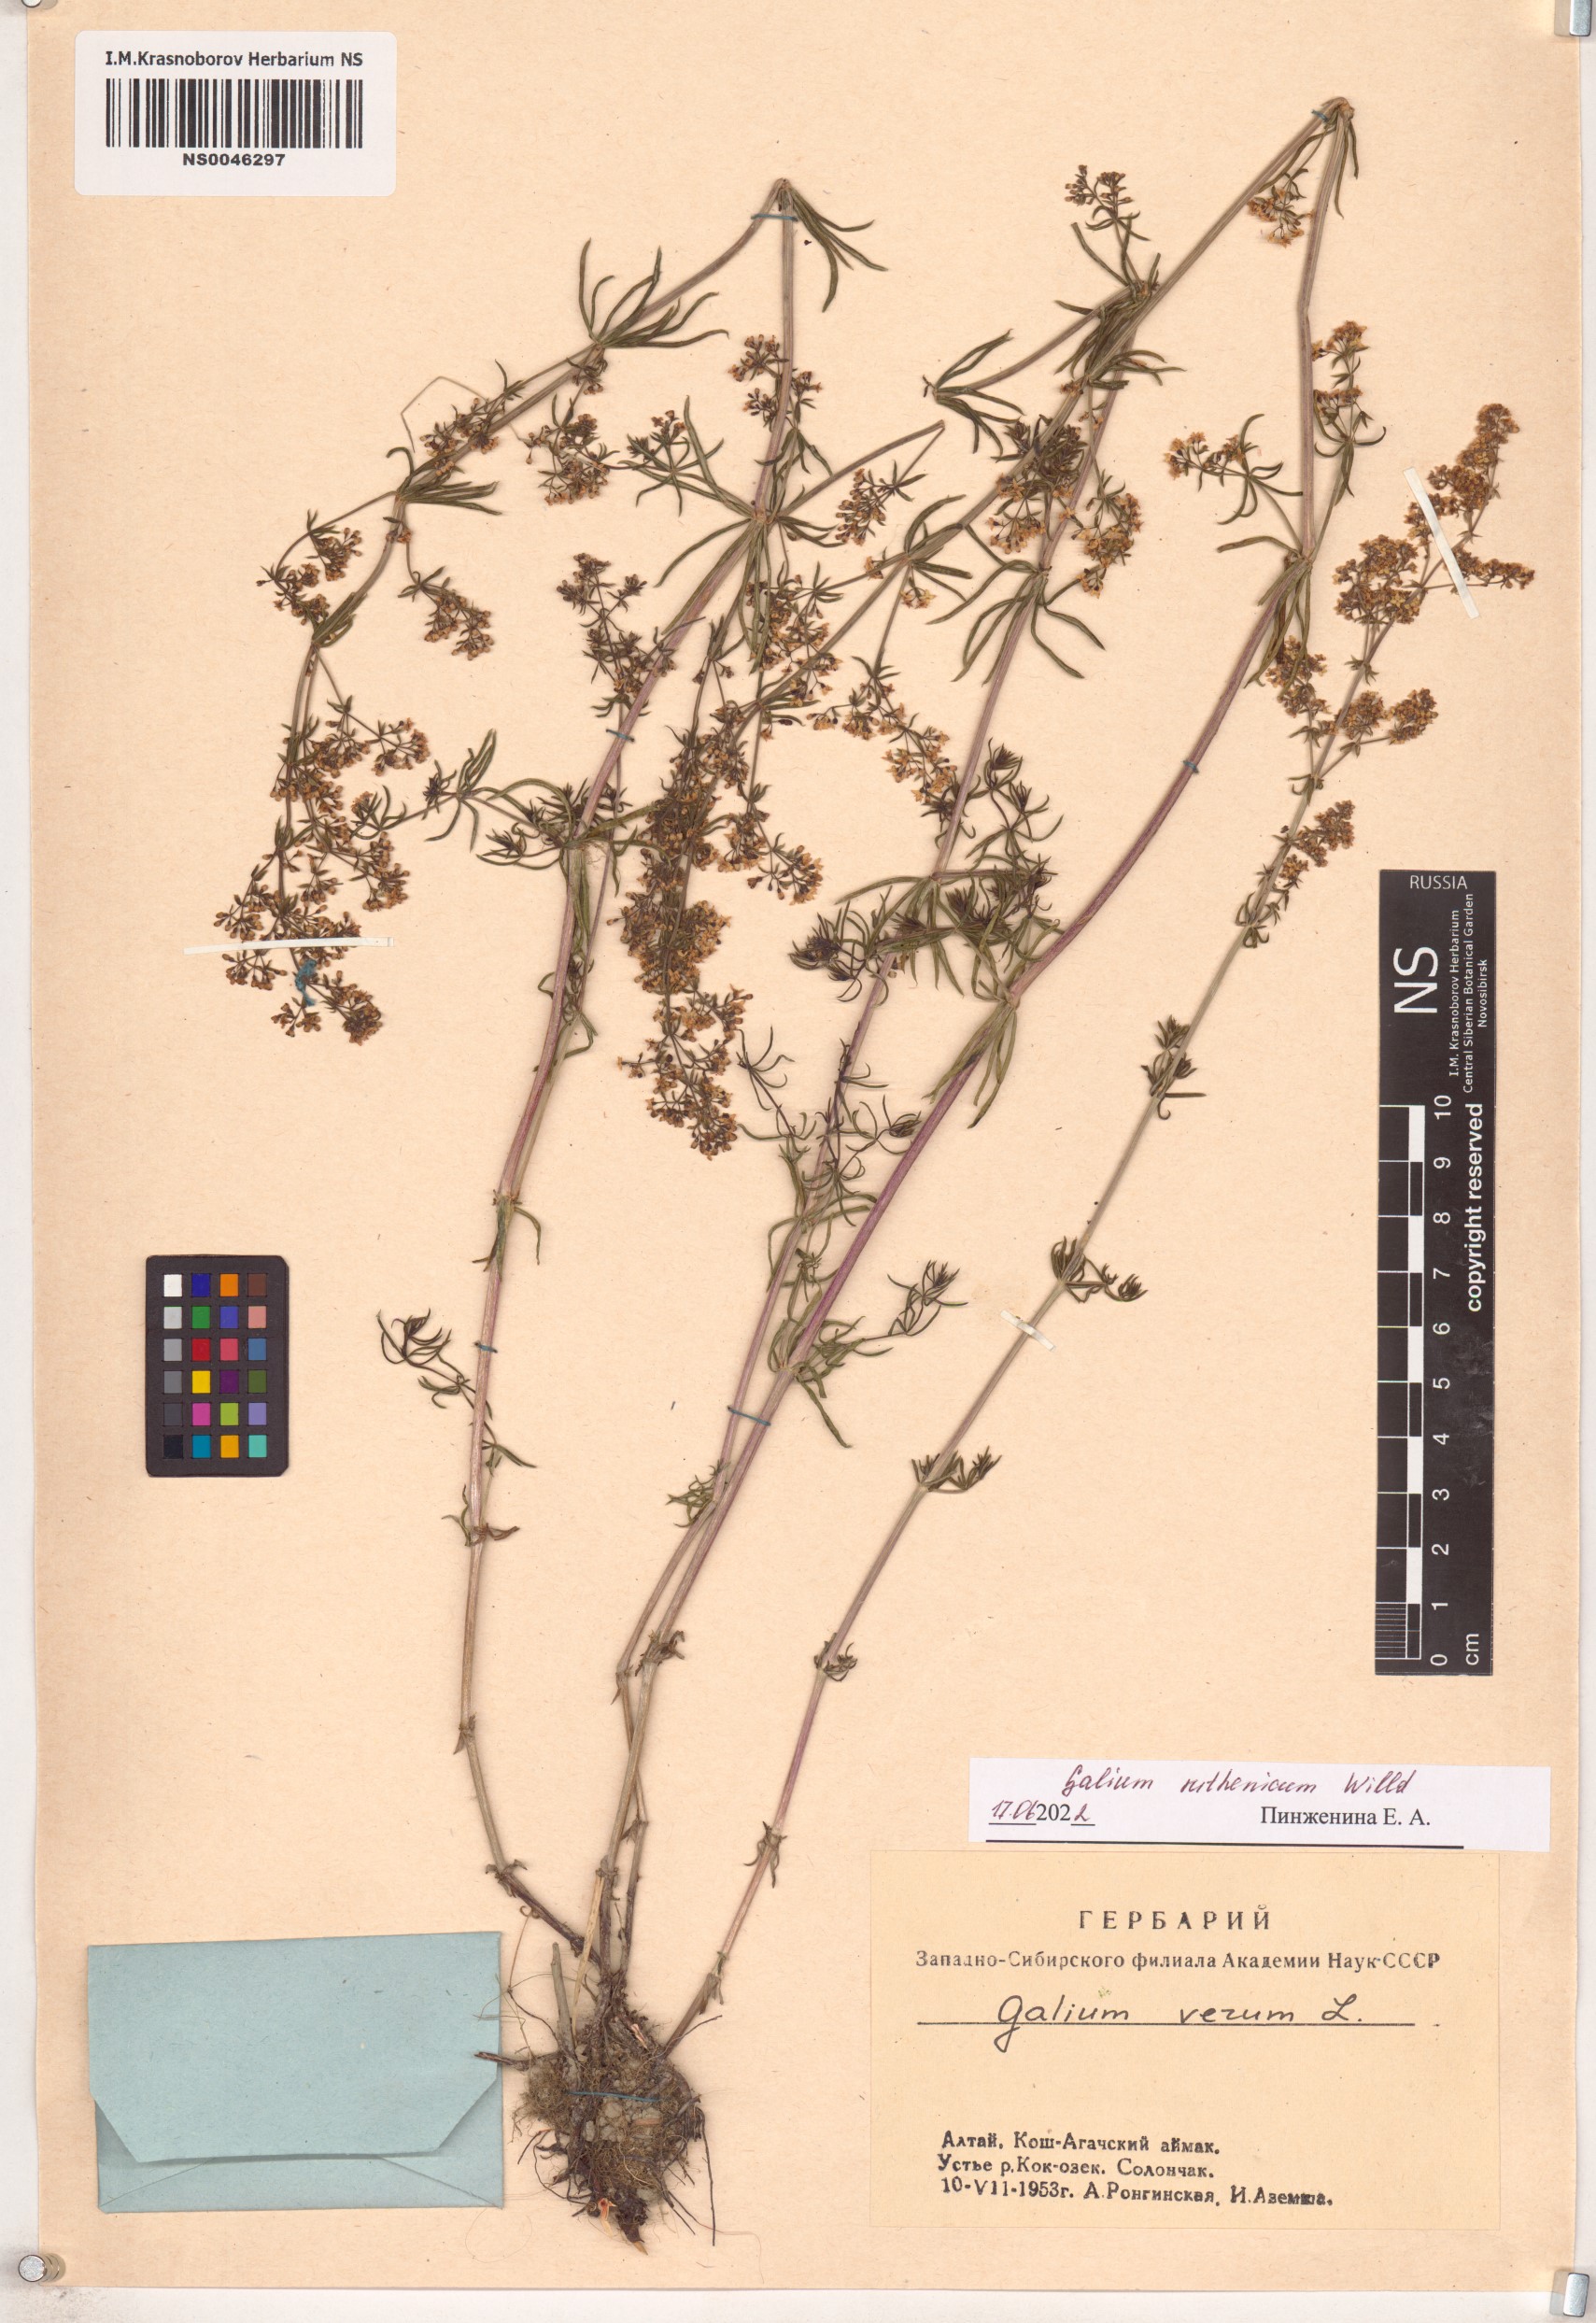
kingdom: Plantae
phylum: Tracheophyta
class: Magnoliopsida
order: Gentianales
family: Rubiaceae
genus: Galium
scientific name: Galium verum
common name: Lady's bedstraw
